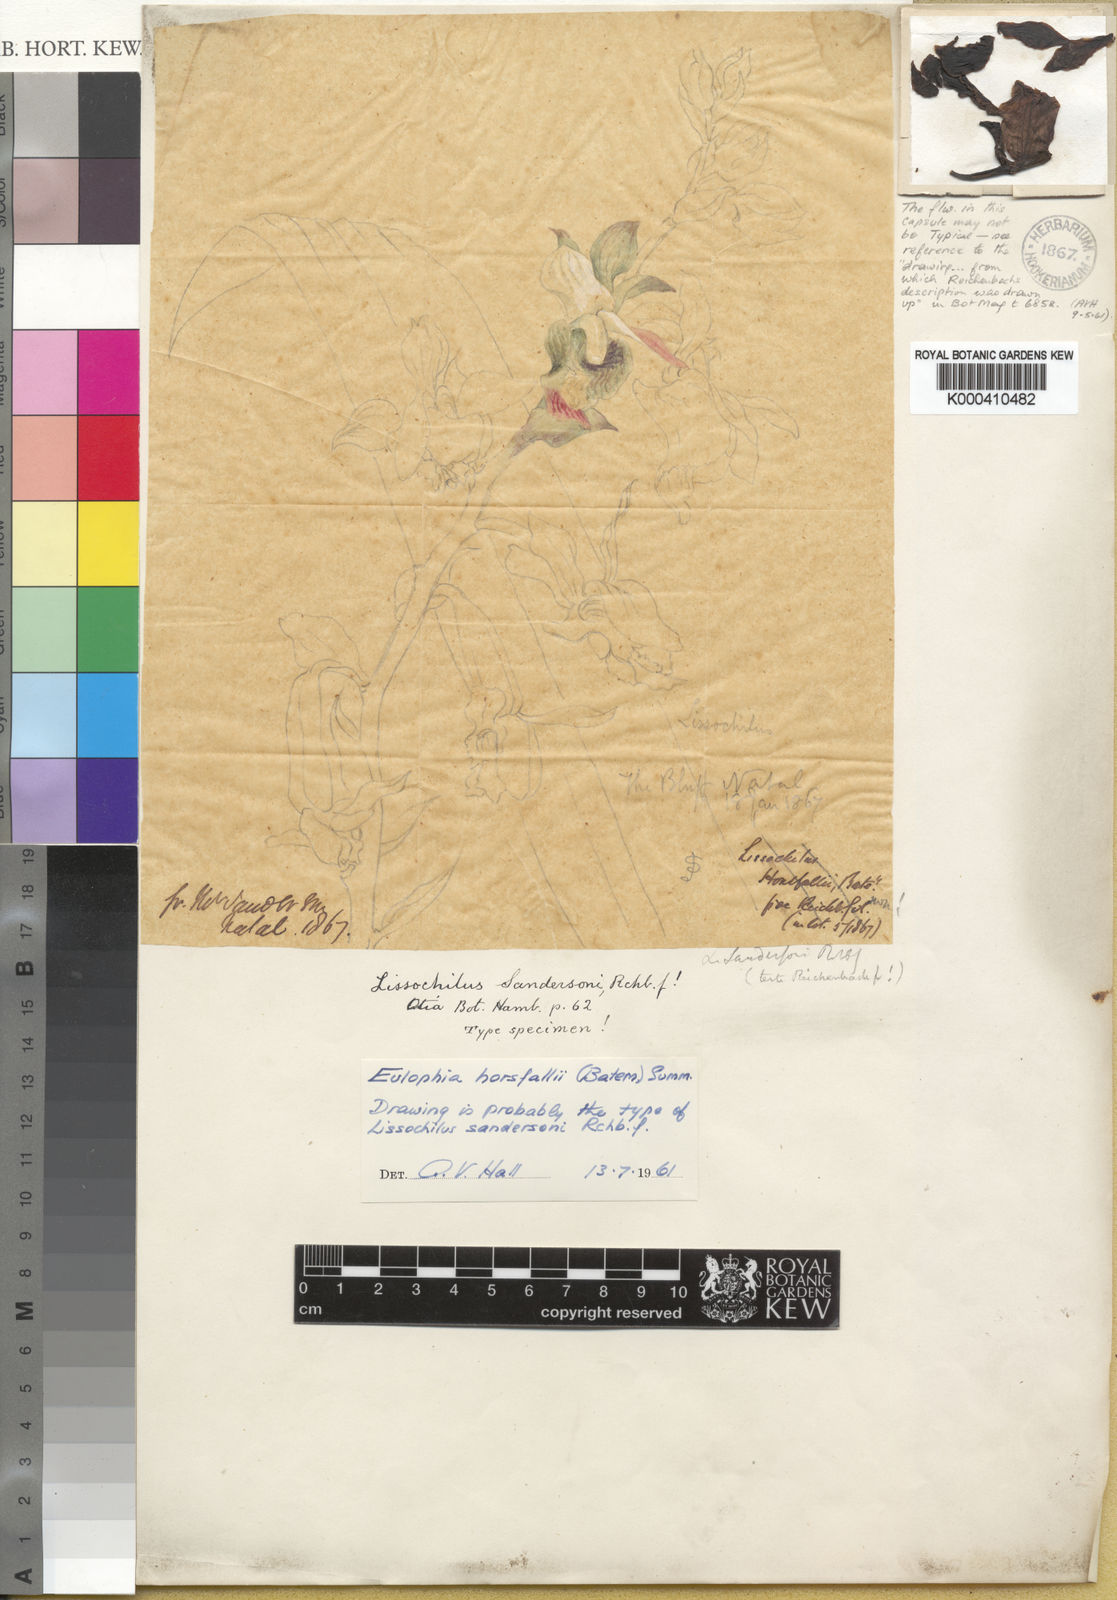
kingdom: Plantae
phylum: Tracheophyta
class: Liliopsida
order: Asparagales
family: Orchidaceae
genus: Eulophia
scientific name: Eulophia horsfallii
